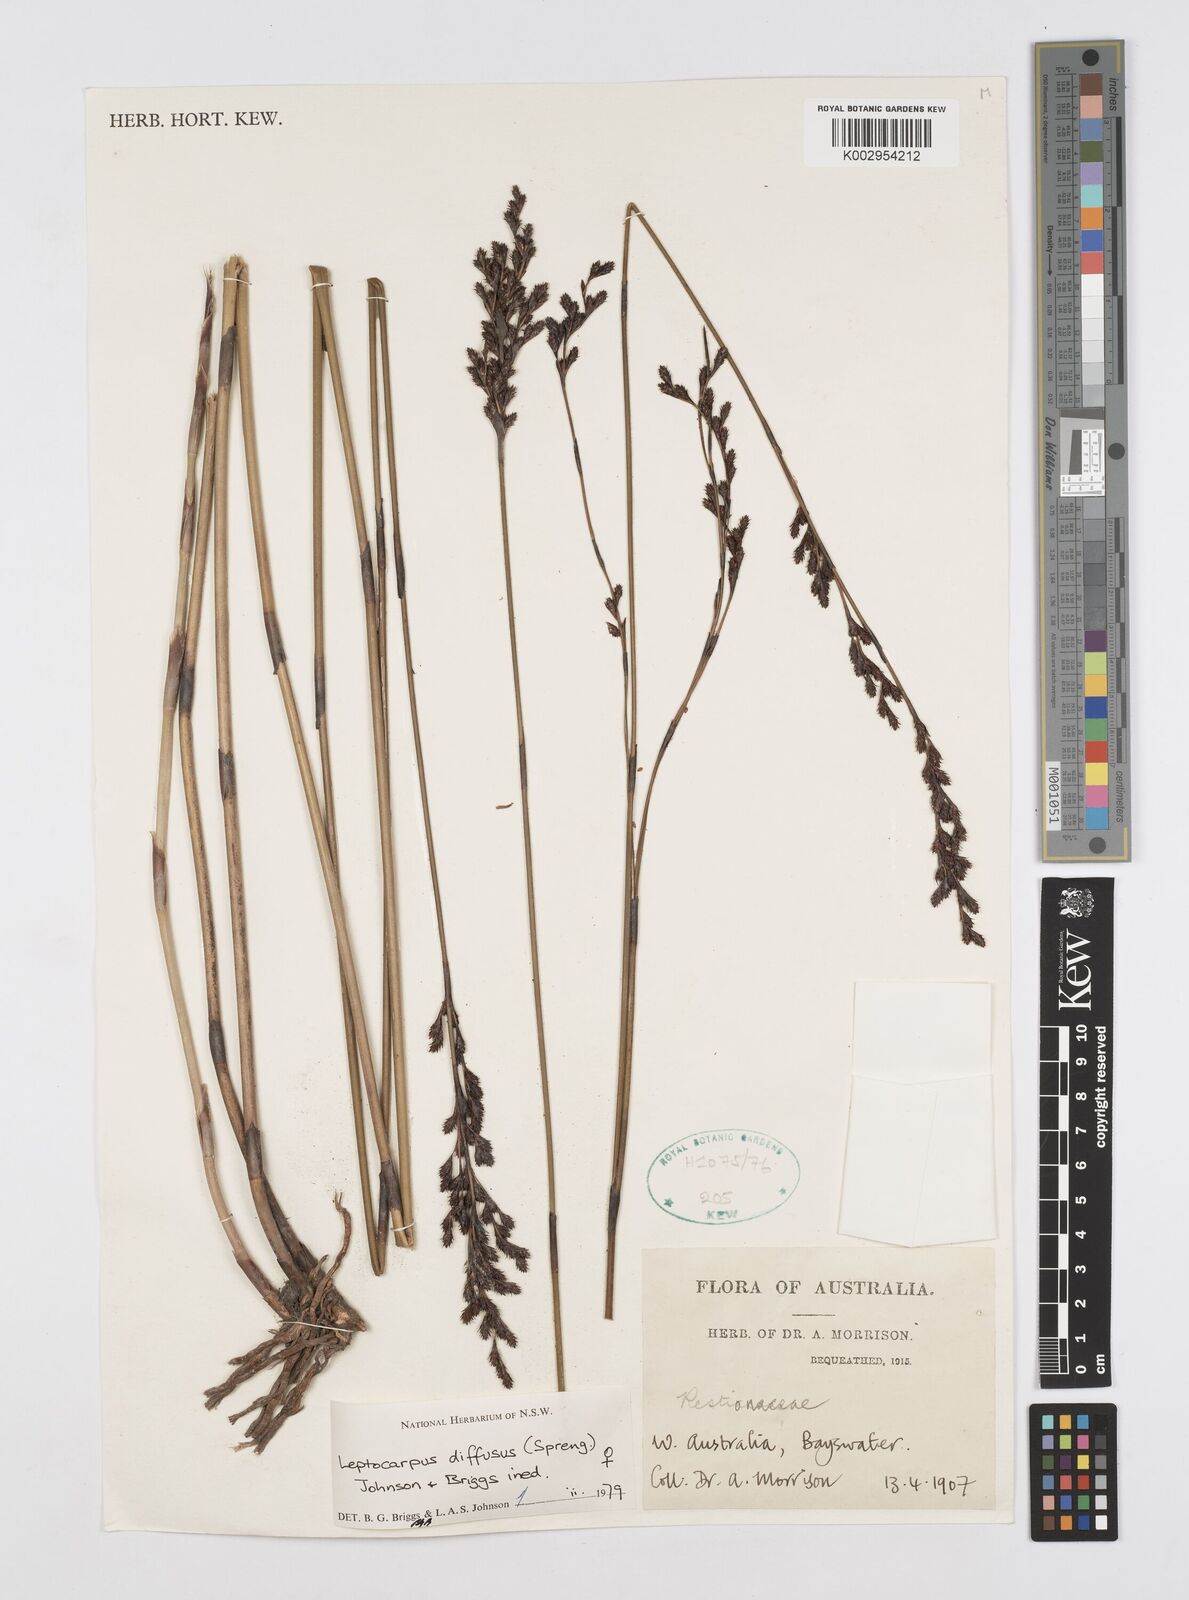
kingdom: Plantae
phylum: Tracheophyta
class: Liliopsida
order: Poales
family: Restionaceae
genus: Leptocarpus
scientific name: Leptocarpus laxus
